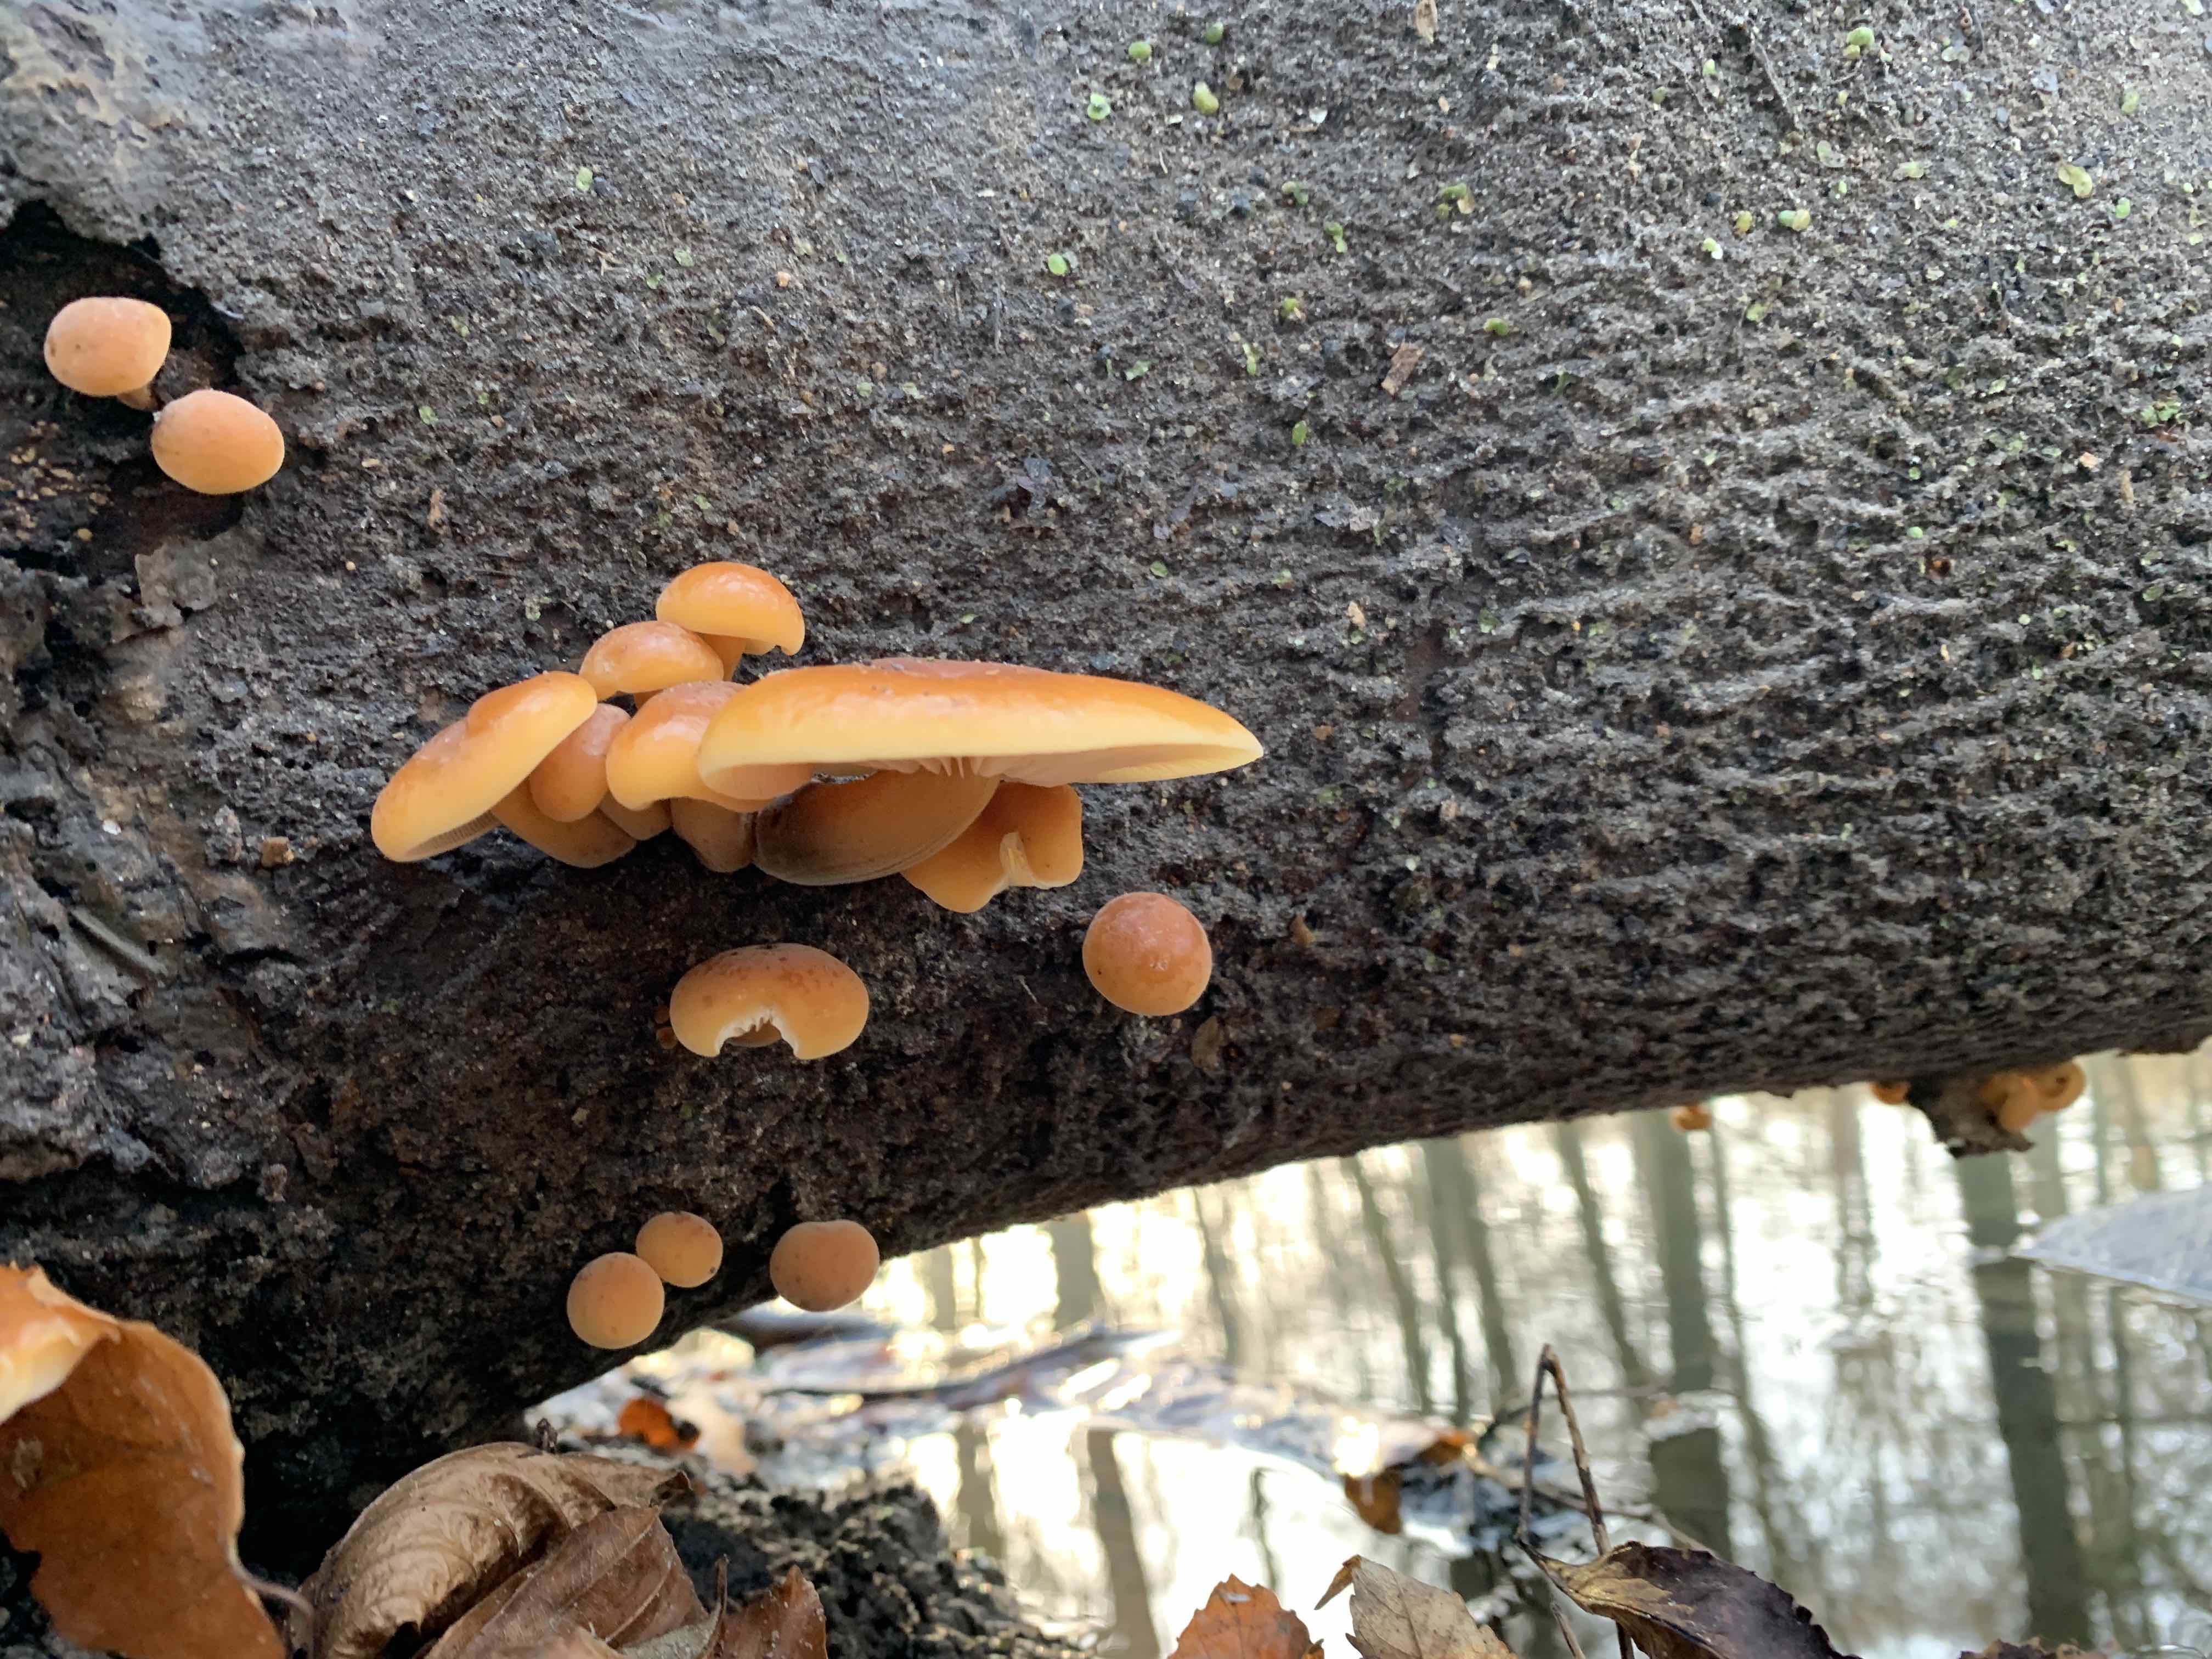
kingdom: Fungi
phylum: Basidiomycota
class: Agaricomycetes
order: Agaricales
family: Physalacriaceae
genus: Flammulina
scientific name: Flammulina
